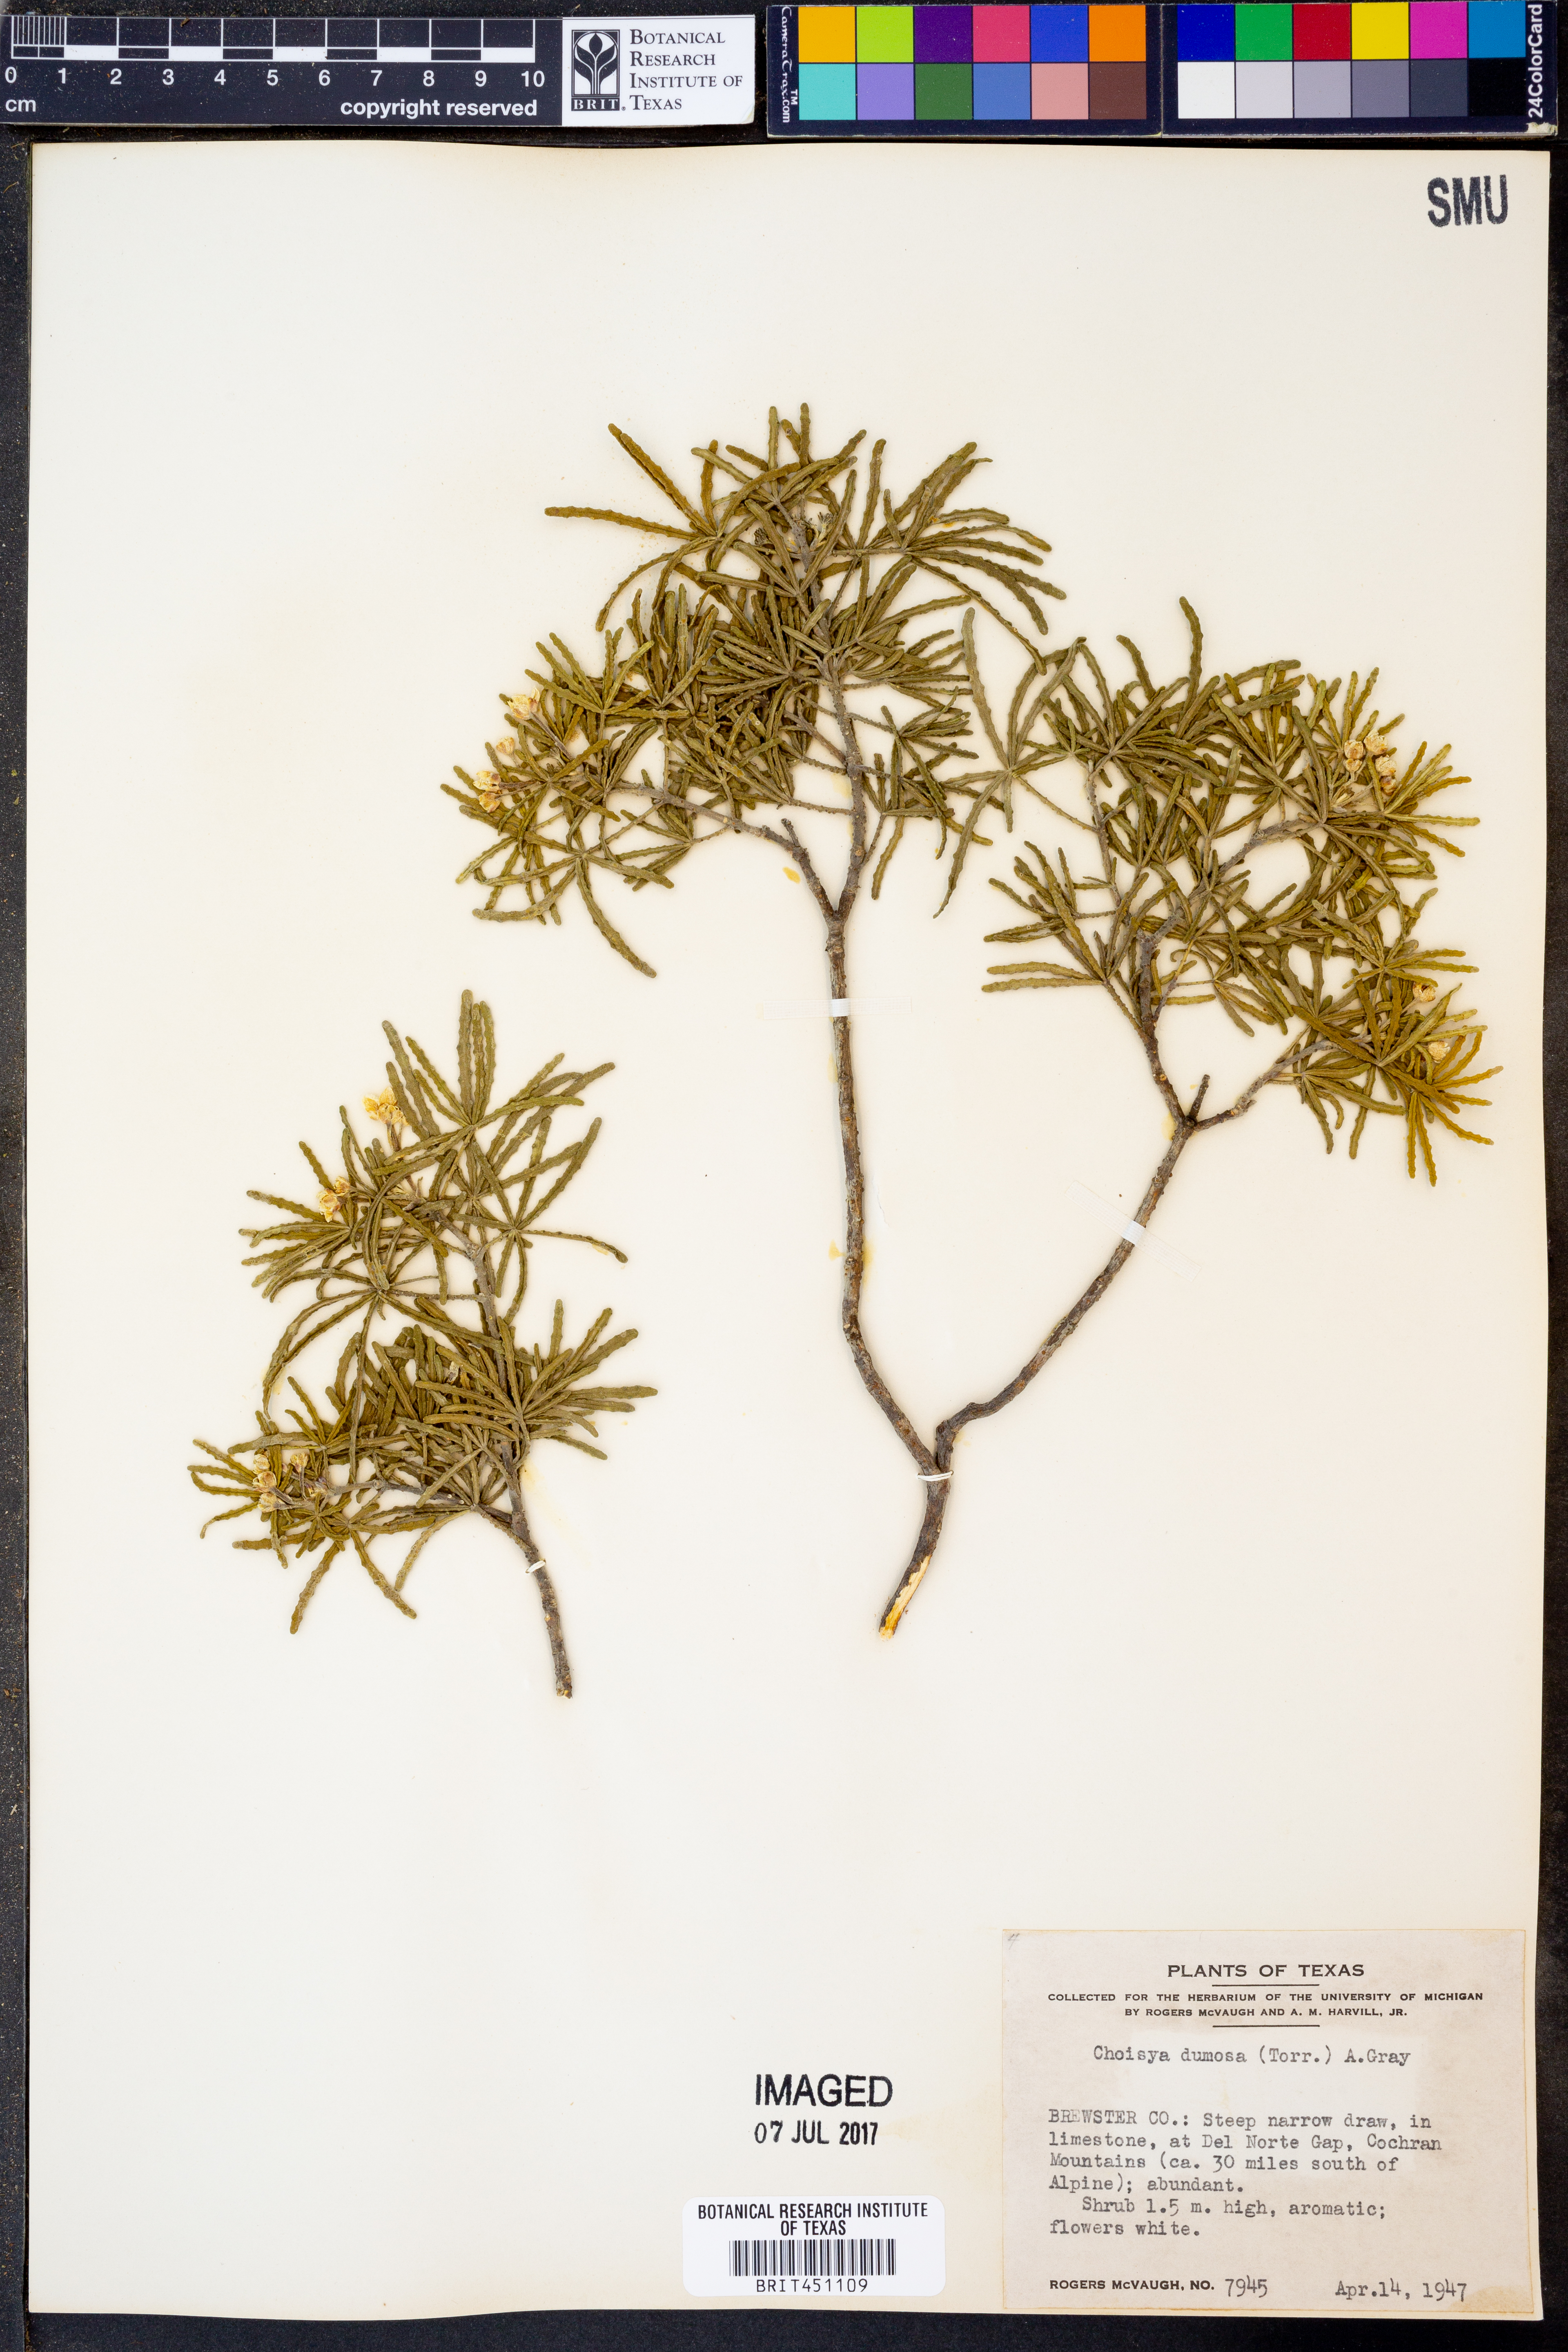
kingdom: Plantae
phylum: Tracheophyta
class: Magnoliopsida
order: Sapindales
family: Rutaceae
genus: Choisya
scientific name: Choisya dumosa
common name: Mexican-orange
